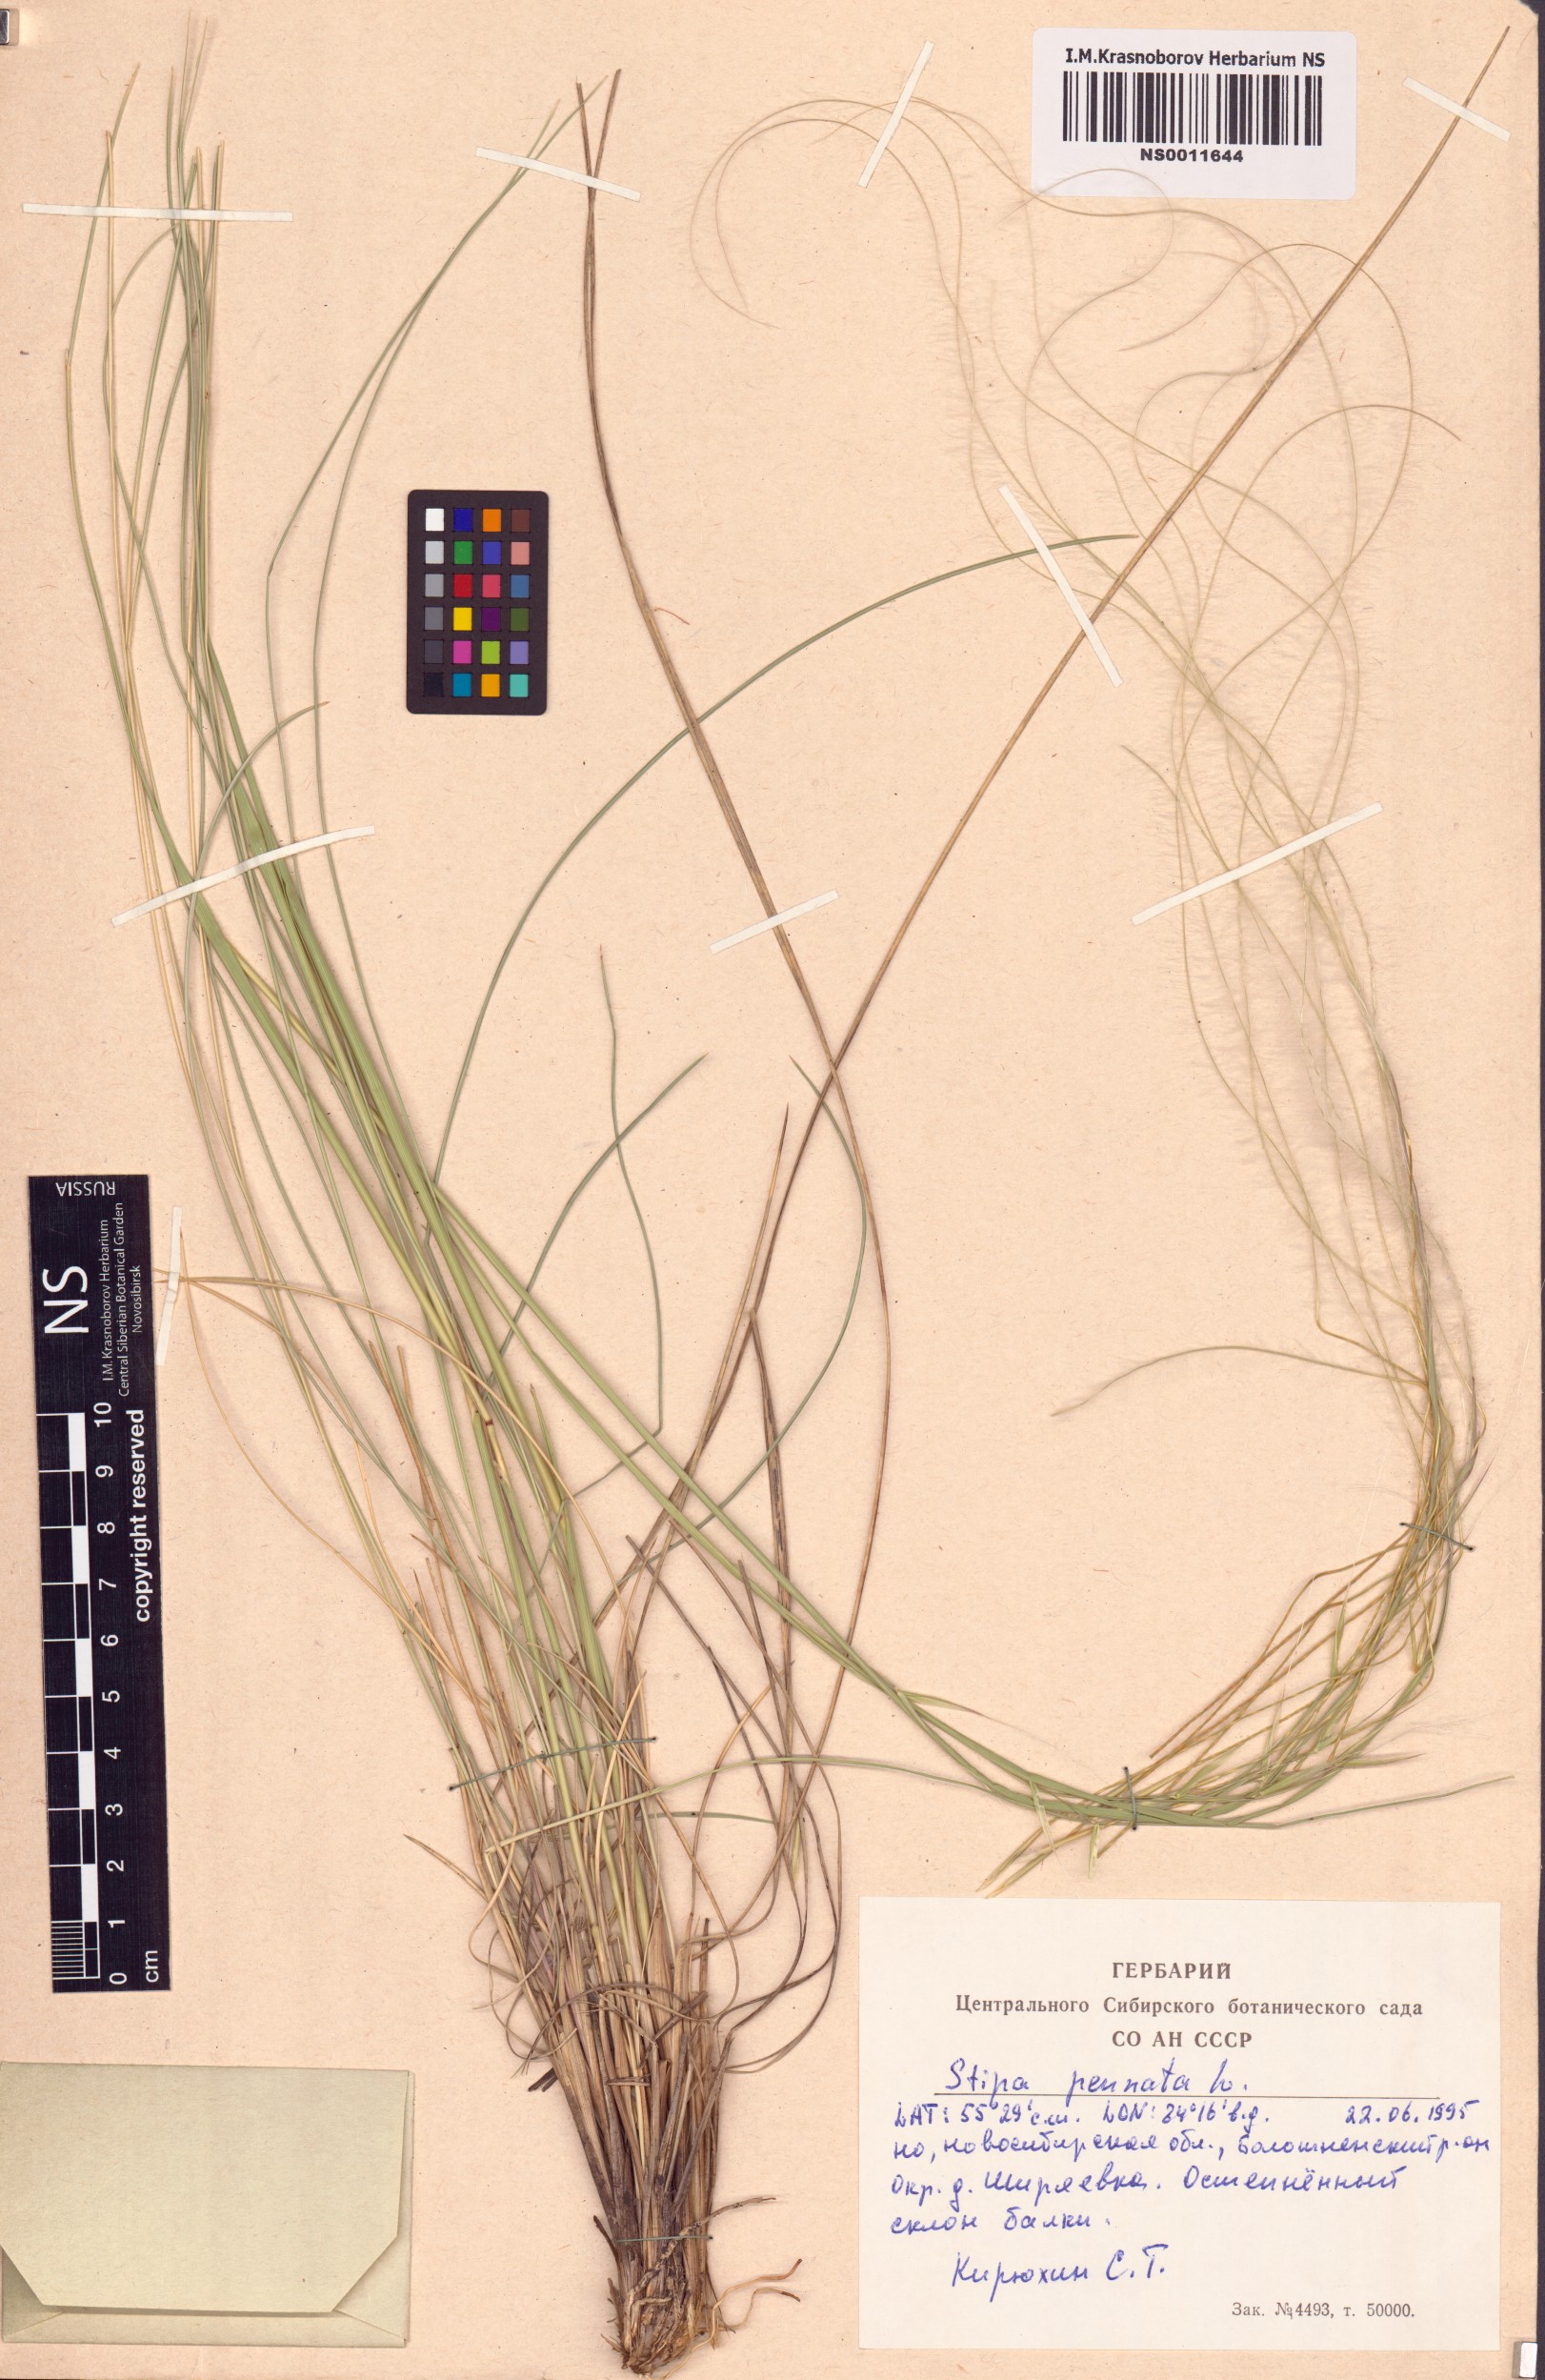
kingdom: Plantae
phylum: Tracheophyta
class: Liliopsida
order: Poales
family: Poaceae
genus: Stipa
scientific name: Stipa pennata
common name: European feather grass
